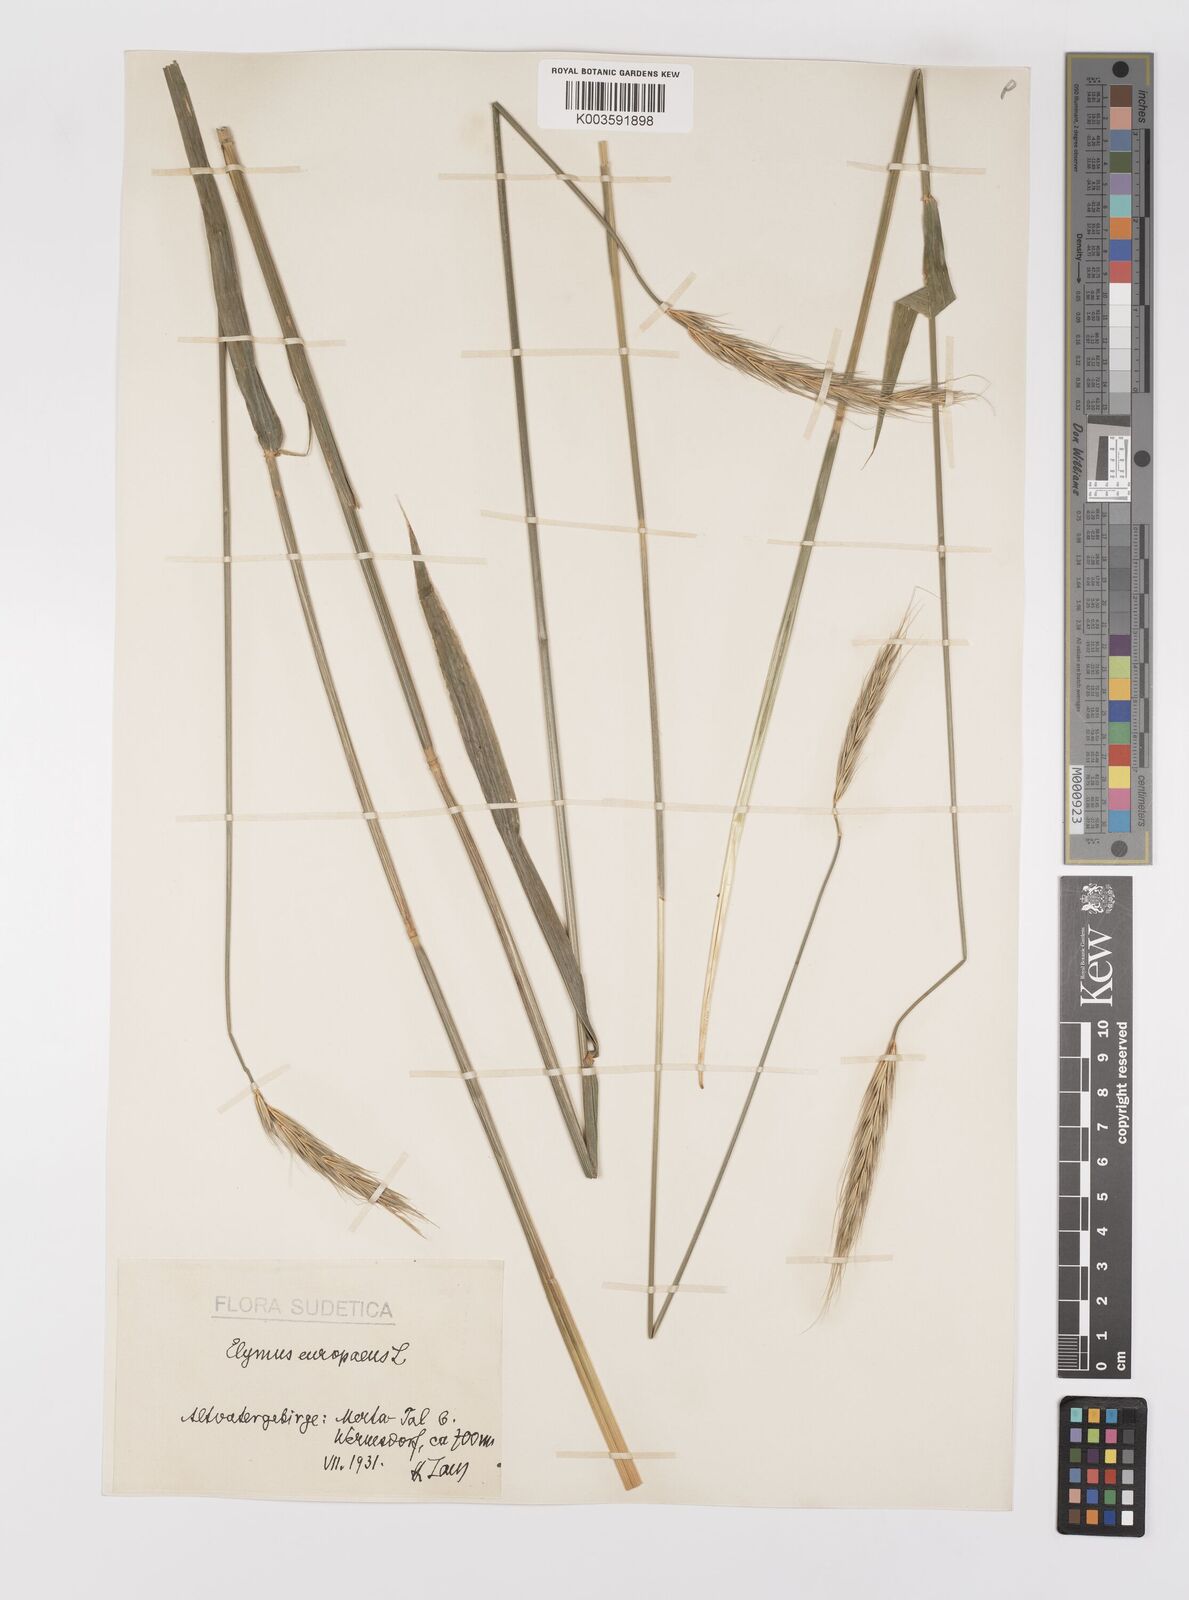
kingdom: Plantae
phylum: Tracheophyta
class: Liliopsida
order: Poales
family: Poaceae
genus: Hordelymus
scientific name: Hordelymus europaeus
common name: Wood-barley
